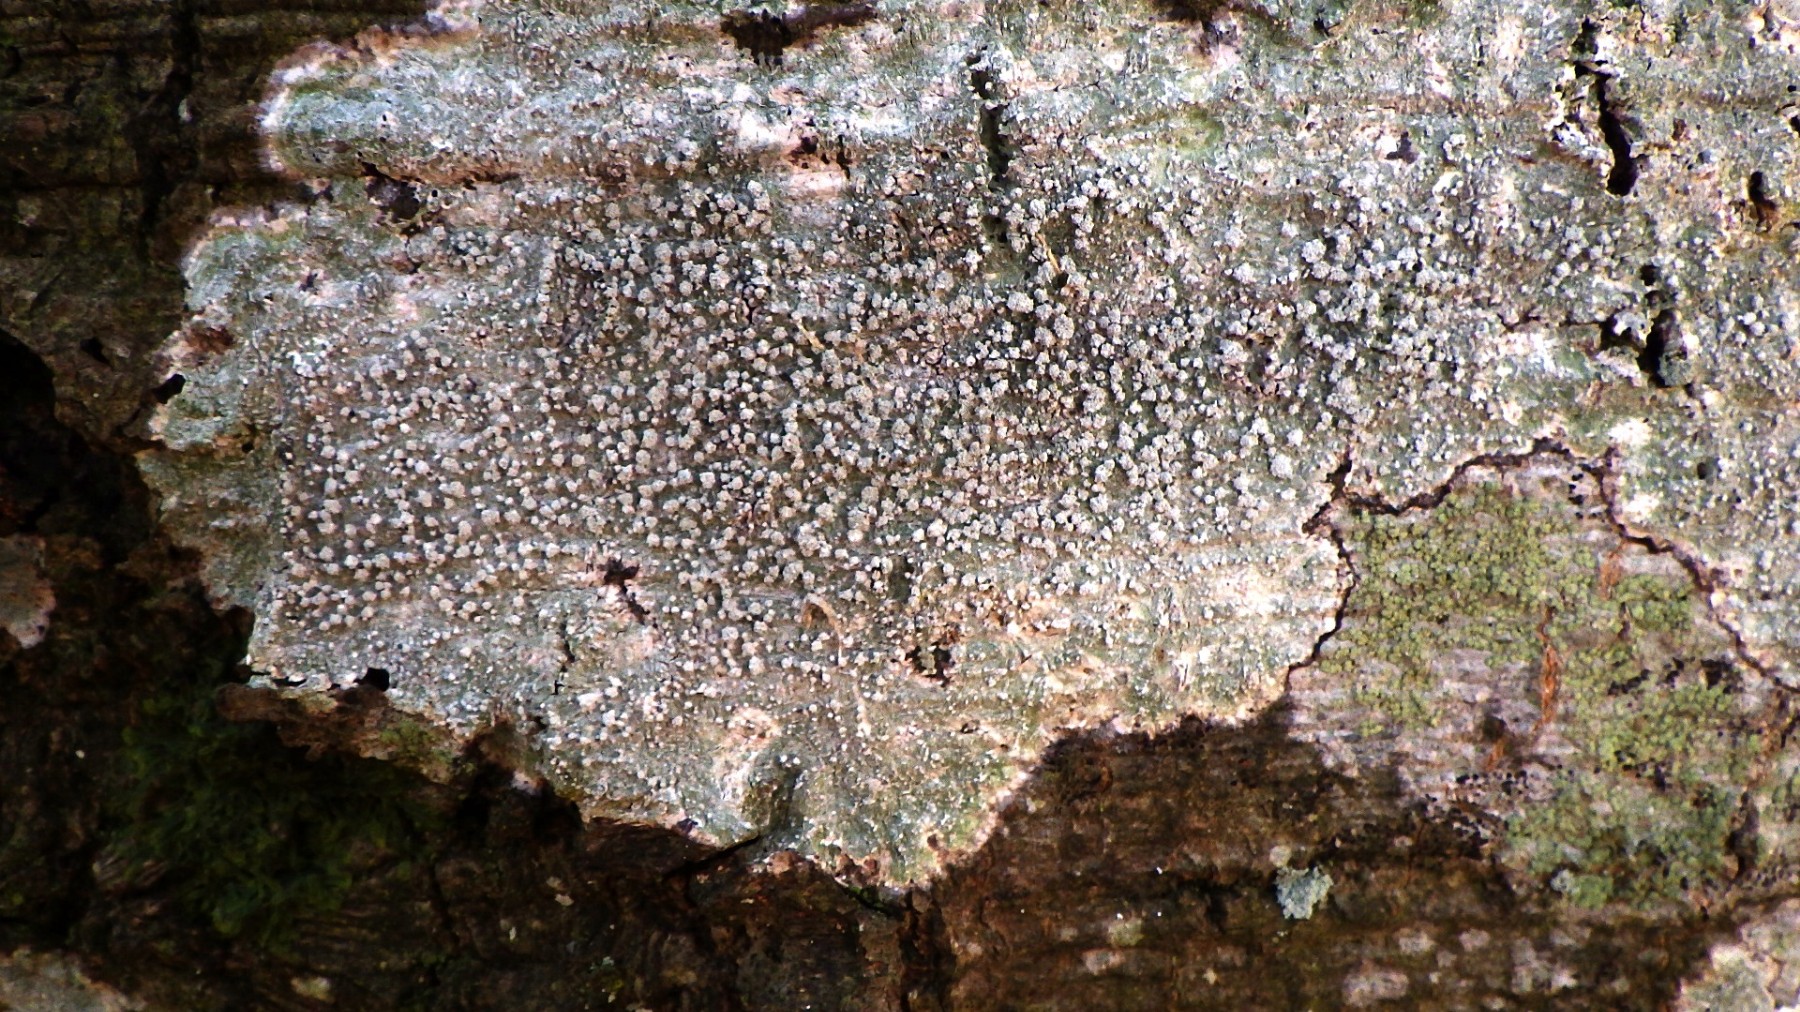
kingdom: Fungi
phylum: Ascomycota
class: Lecanoromycetes
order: Pertusariales
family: Pertusariaceae
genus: Lepra
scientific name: Lepra amara
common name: bitter prikvortelav
